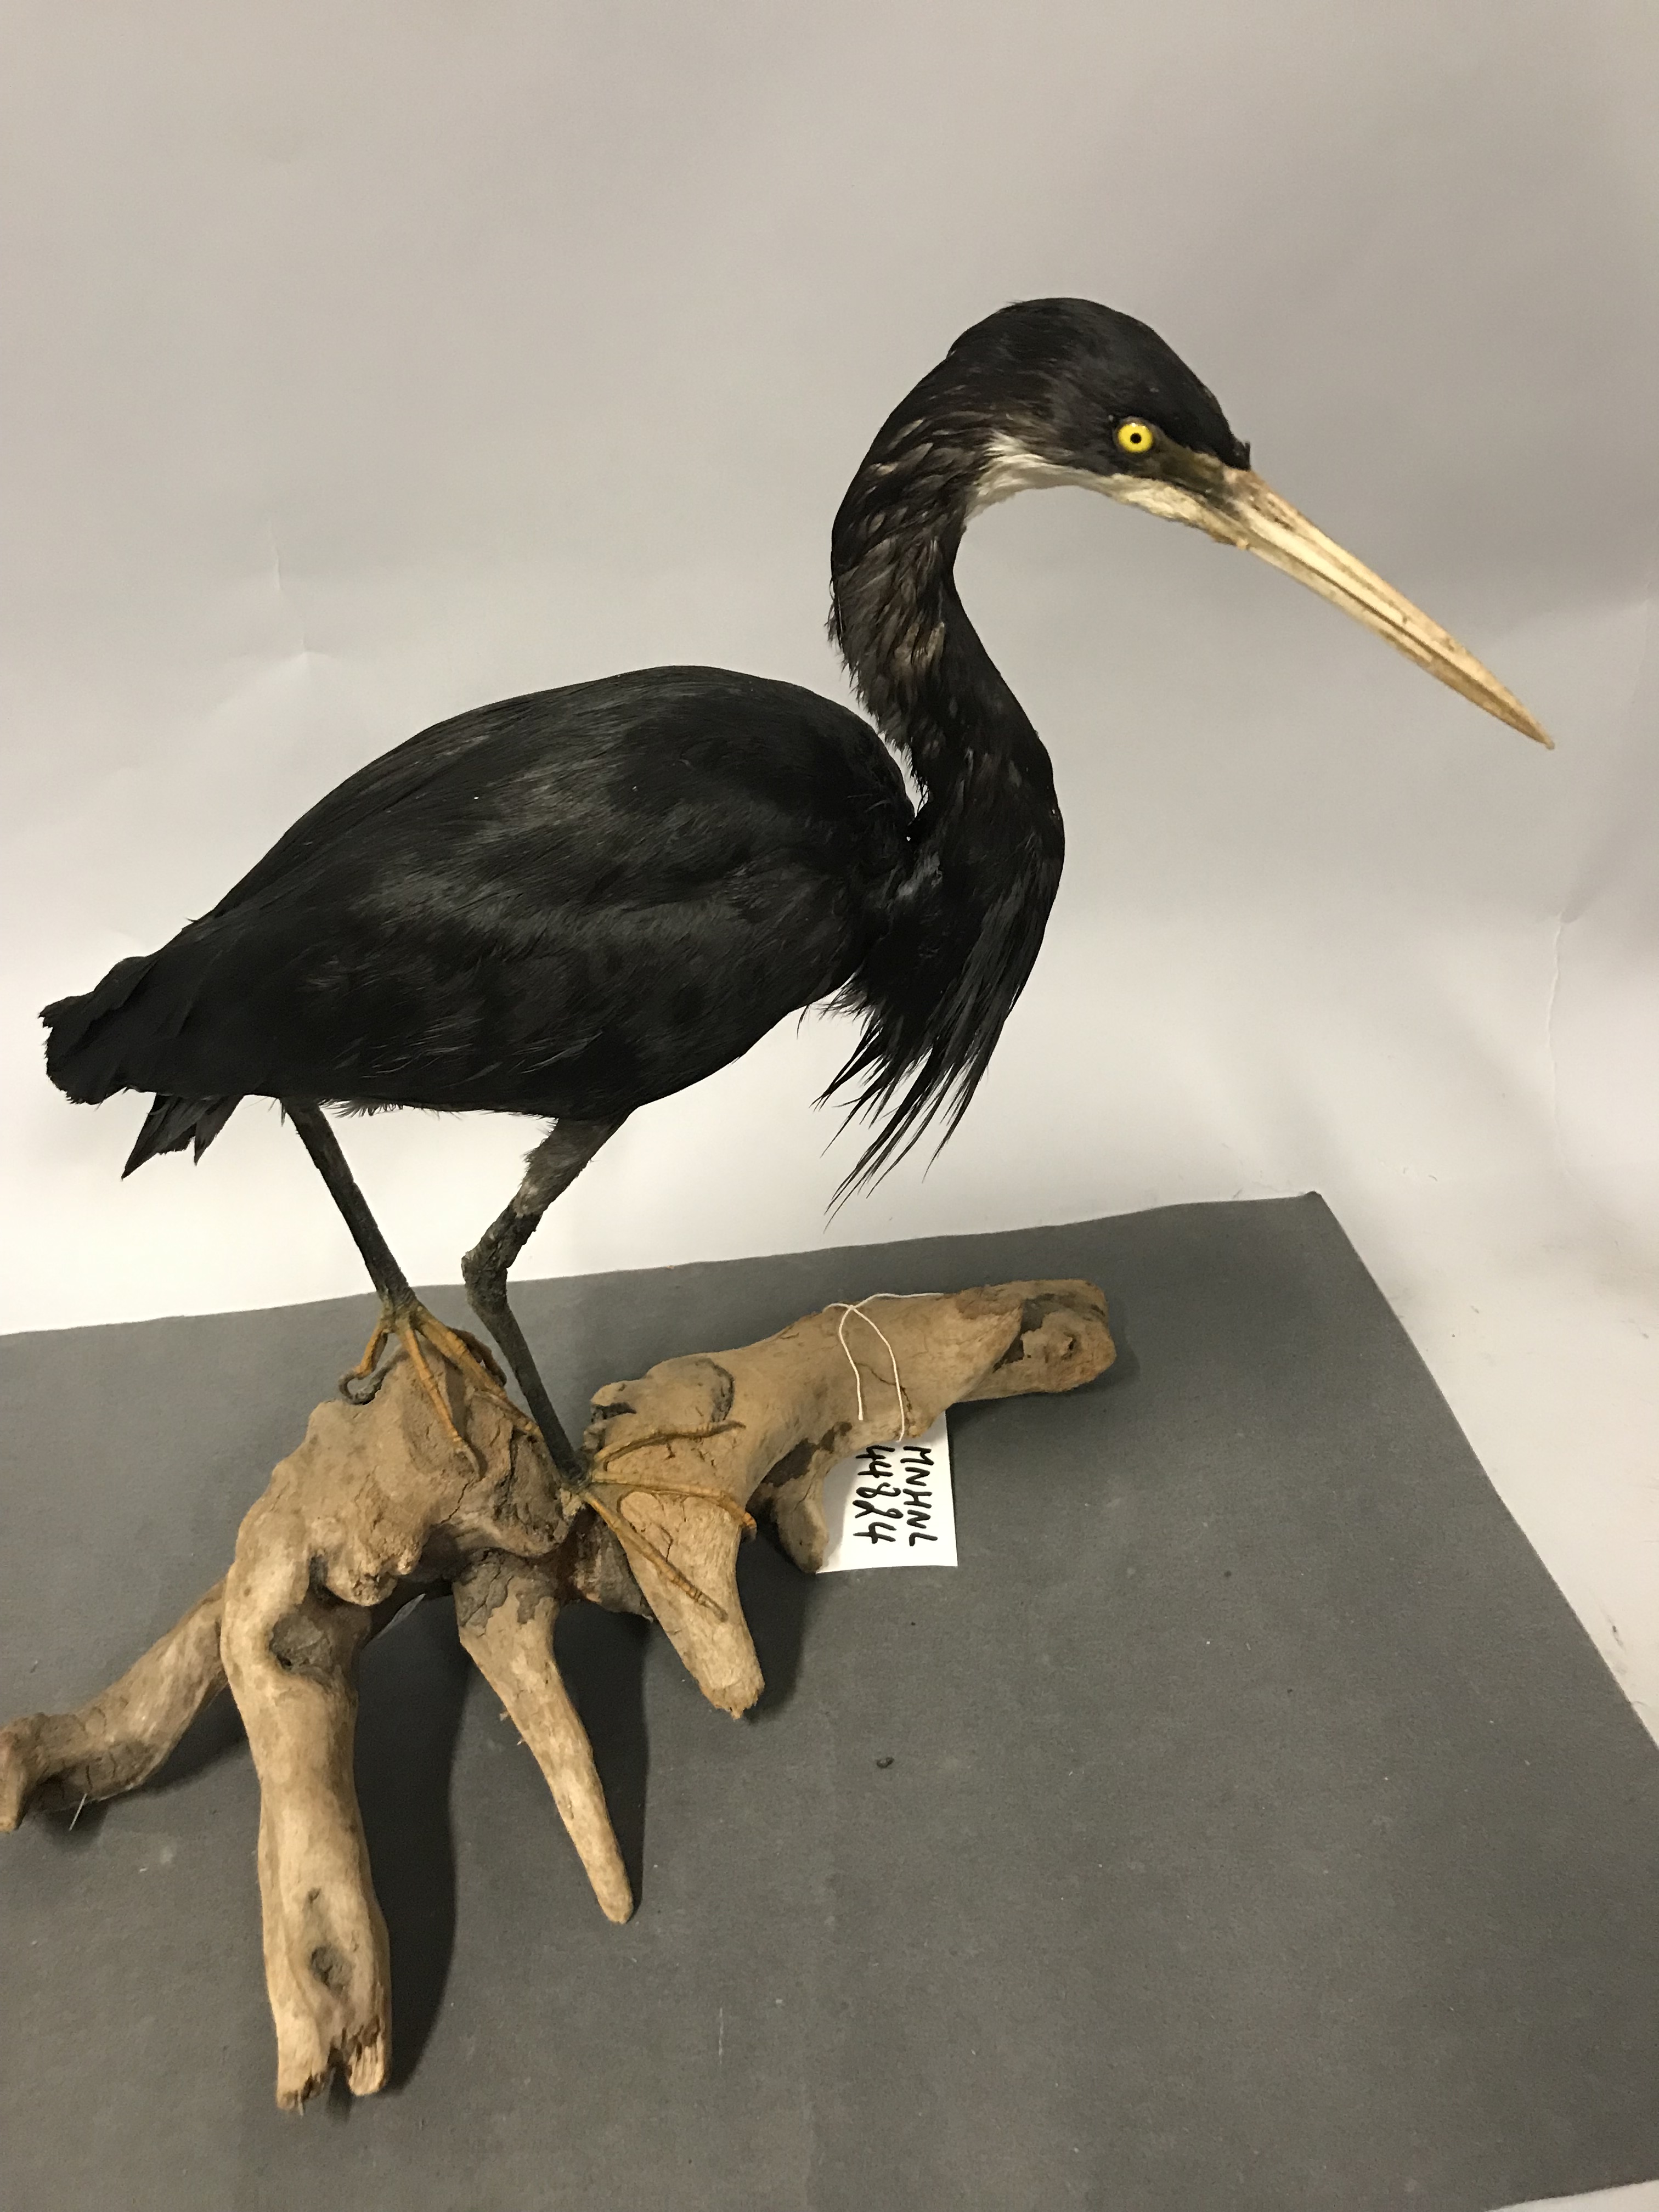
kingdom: Animalia
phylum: Chordata
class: Aves
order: Pelecaniformes
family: Ardeidae
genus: Egretta
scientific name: Egretta gularis
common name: Western reef-heron
